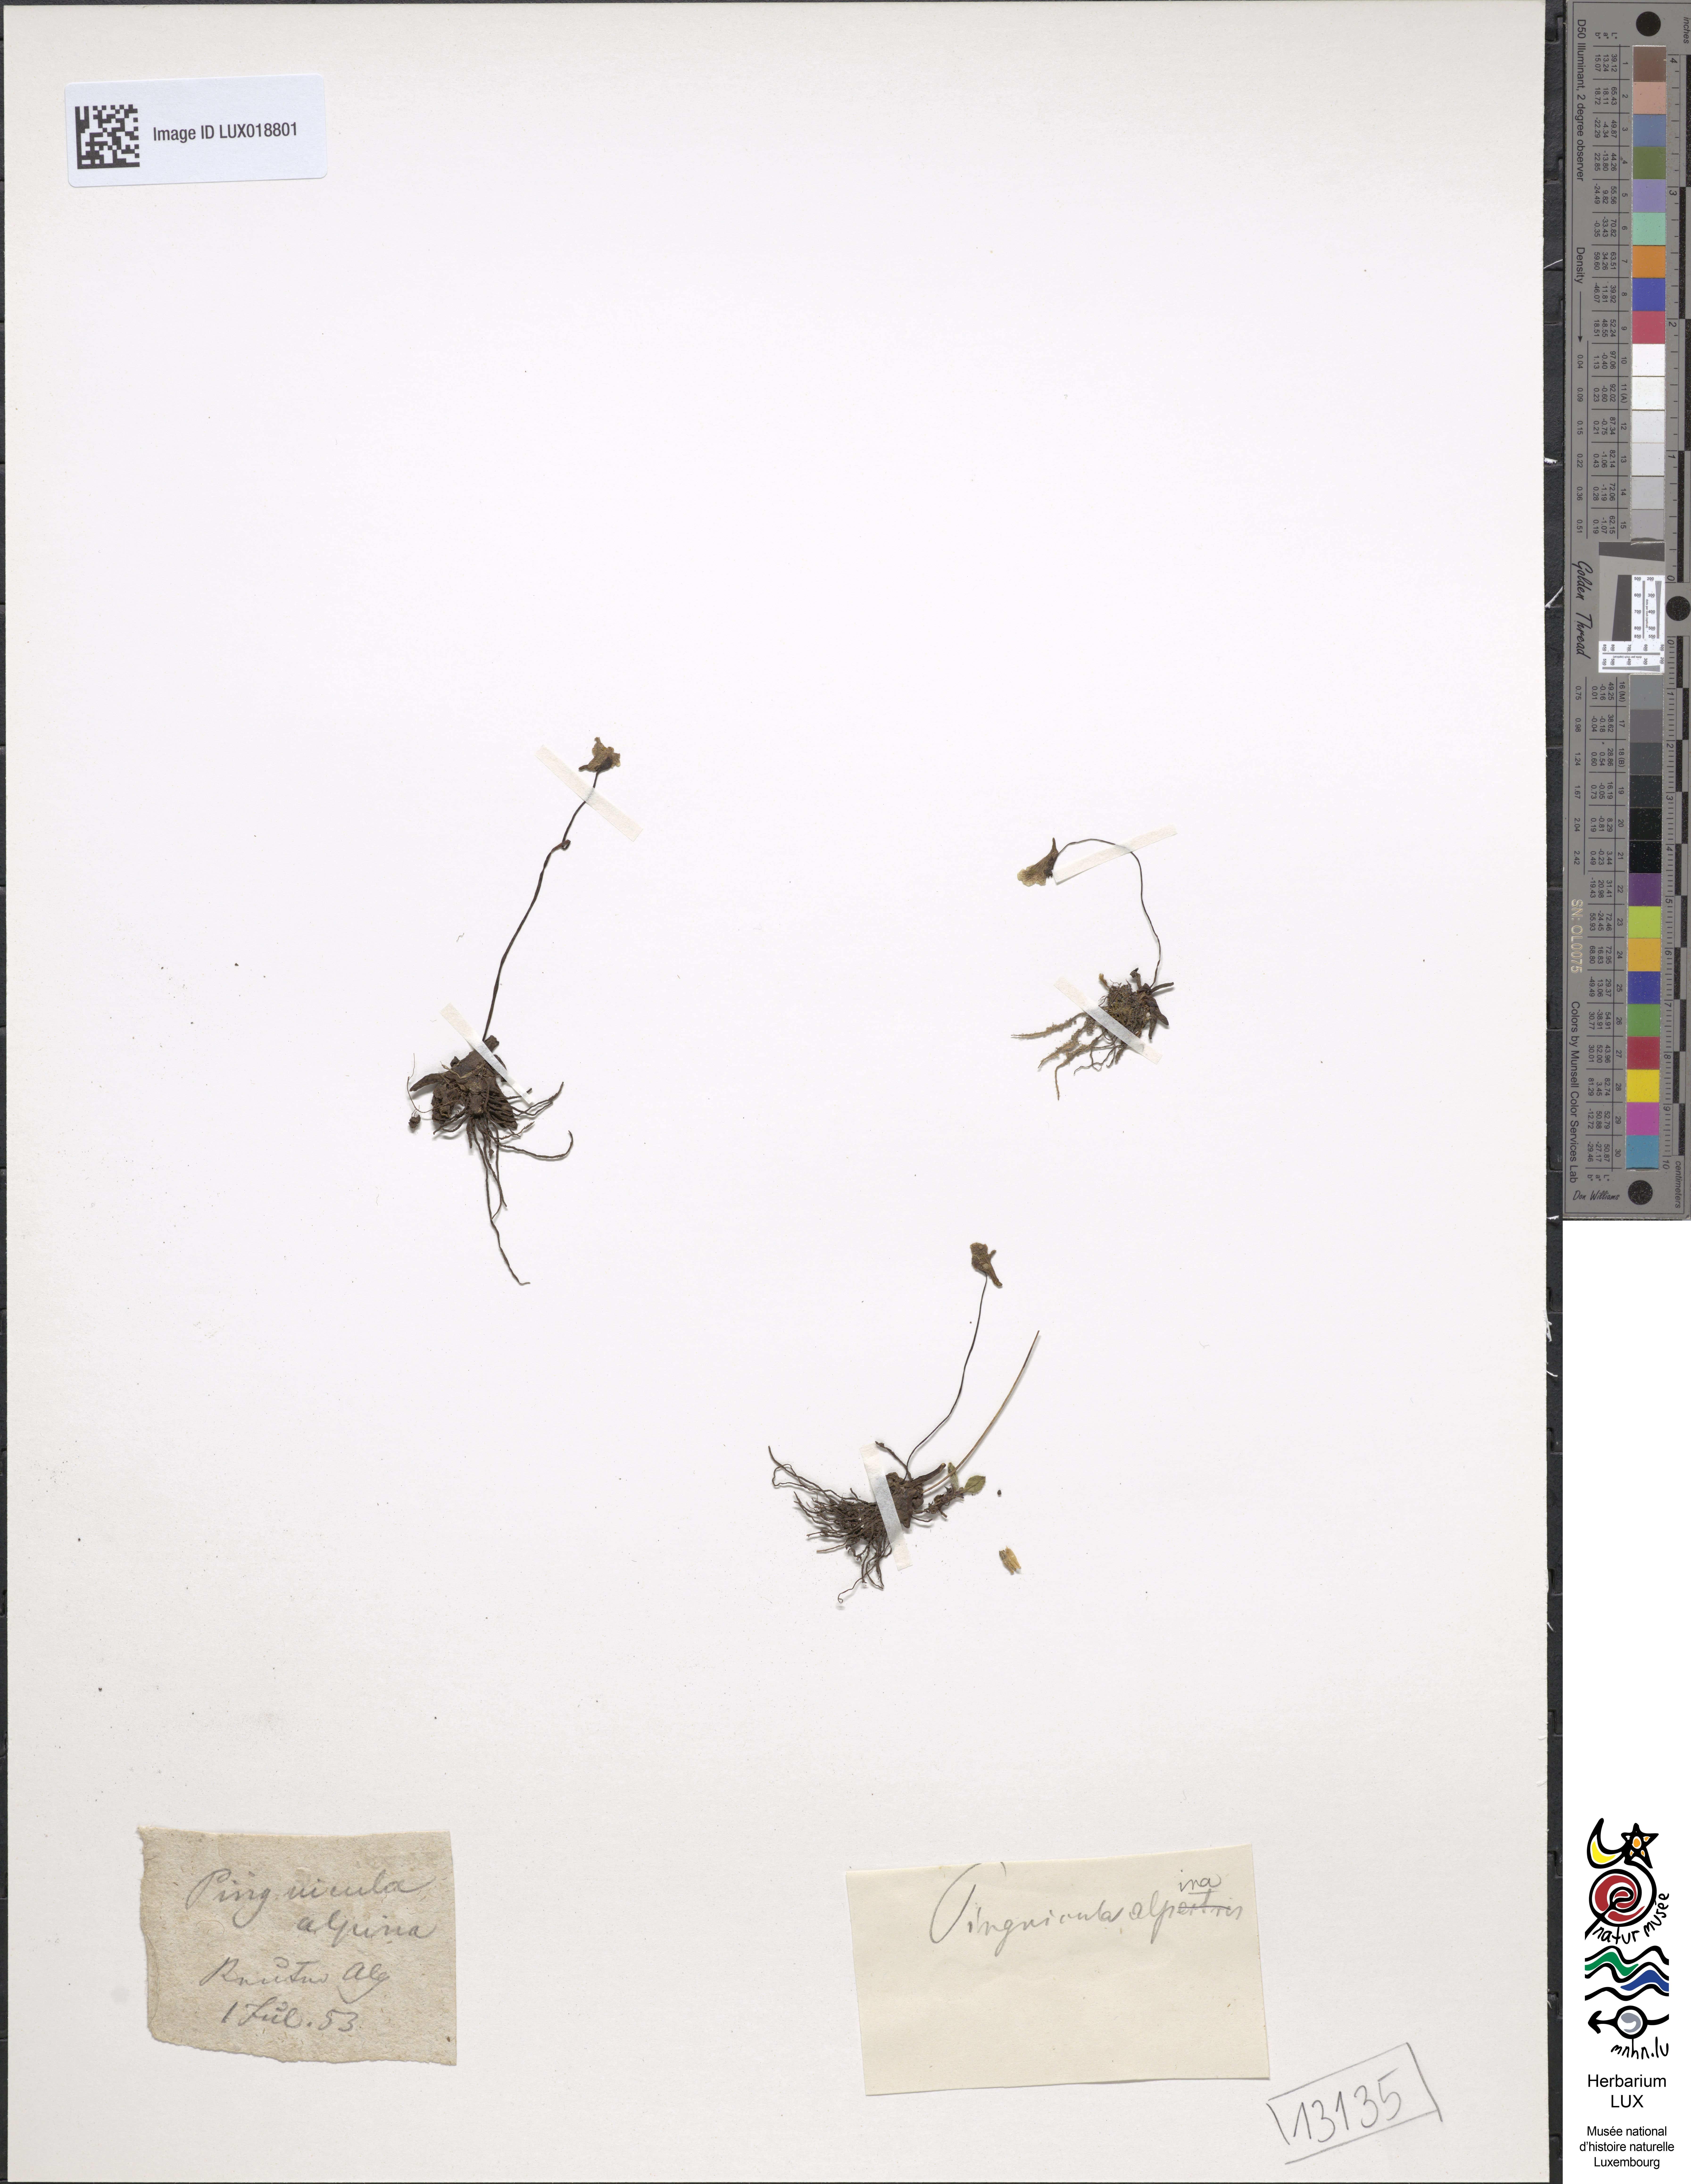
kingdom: Plantae
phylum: Tracheophyta
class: Magnoliopsida
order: Lamiales
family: Lentibulariaceae
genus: Pinguicula
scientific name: Pinguicula alpina
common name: Alpine butterwort
